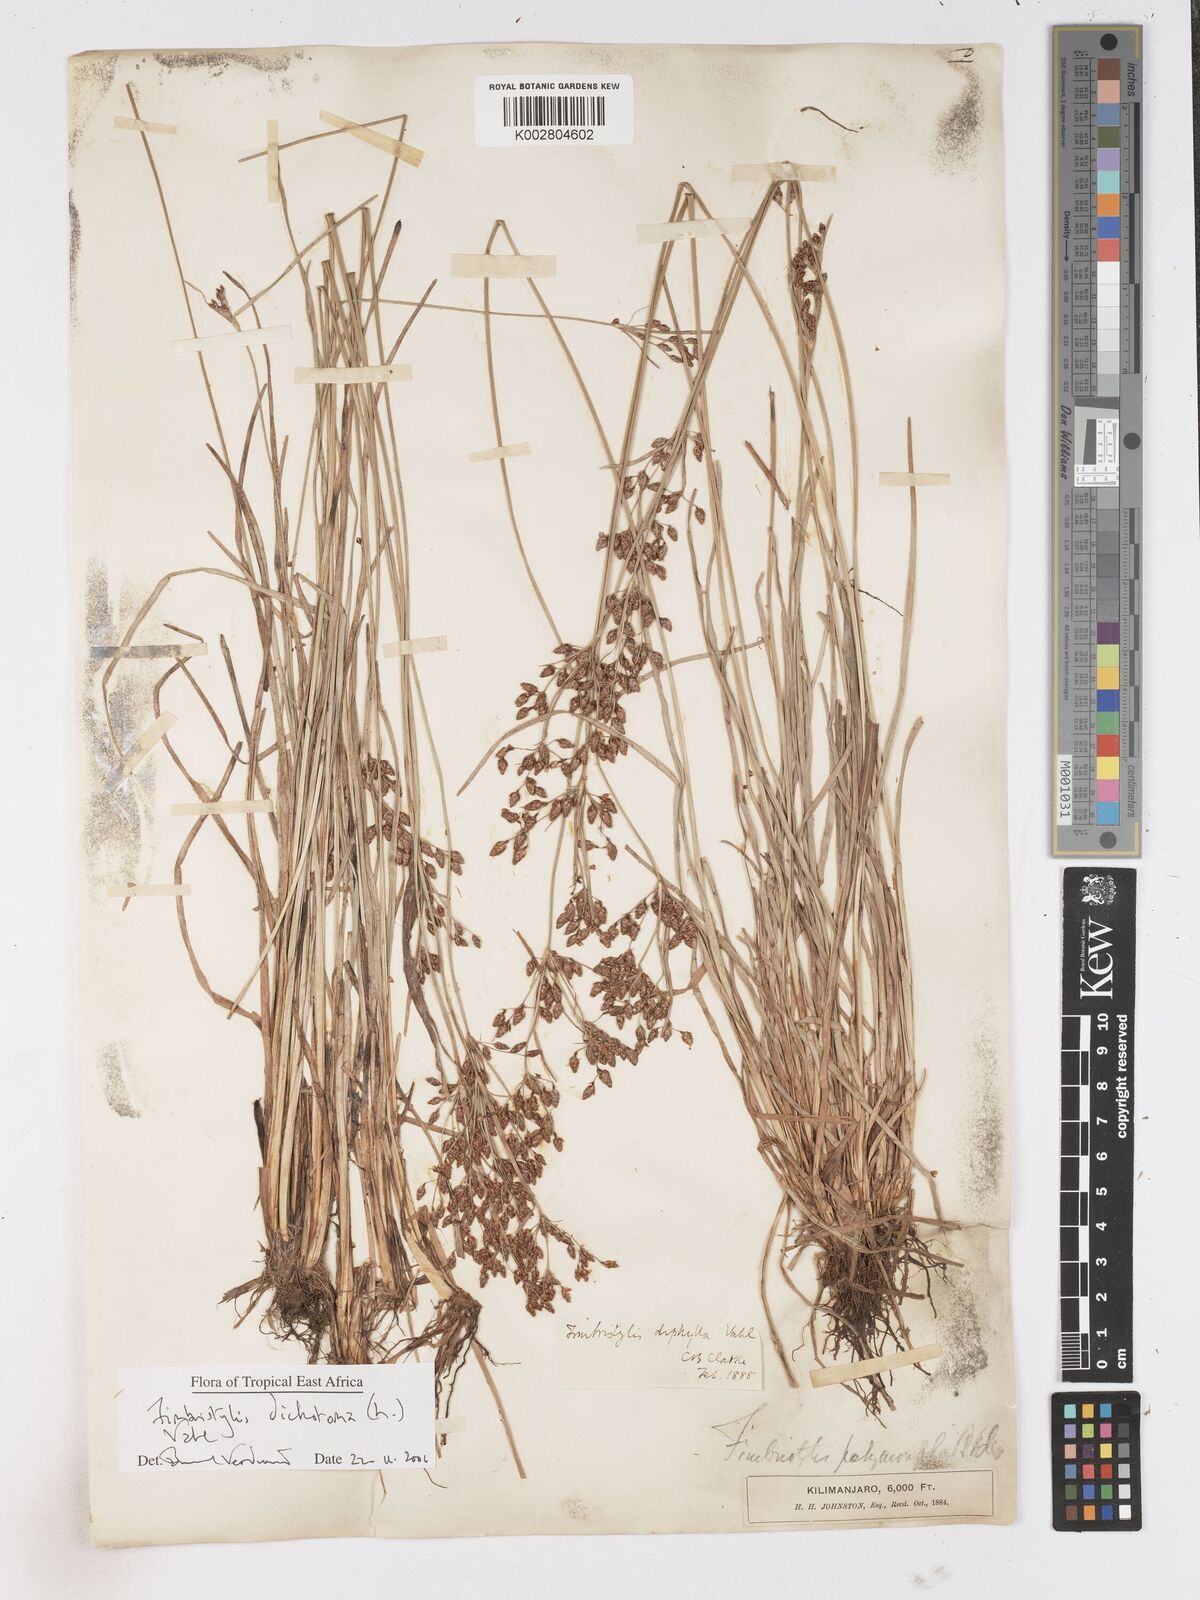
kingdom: Plantae
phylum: Tracheophyta
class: Liliopsida
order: Poales
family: Cyperaceae
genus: Fimbristylis
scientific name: Fimbristylis dichotoma
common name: Forked fimbry
